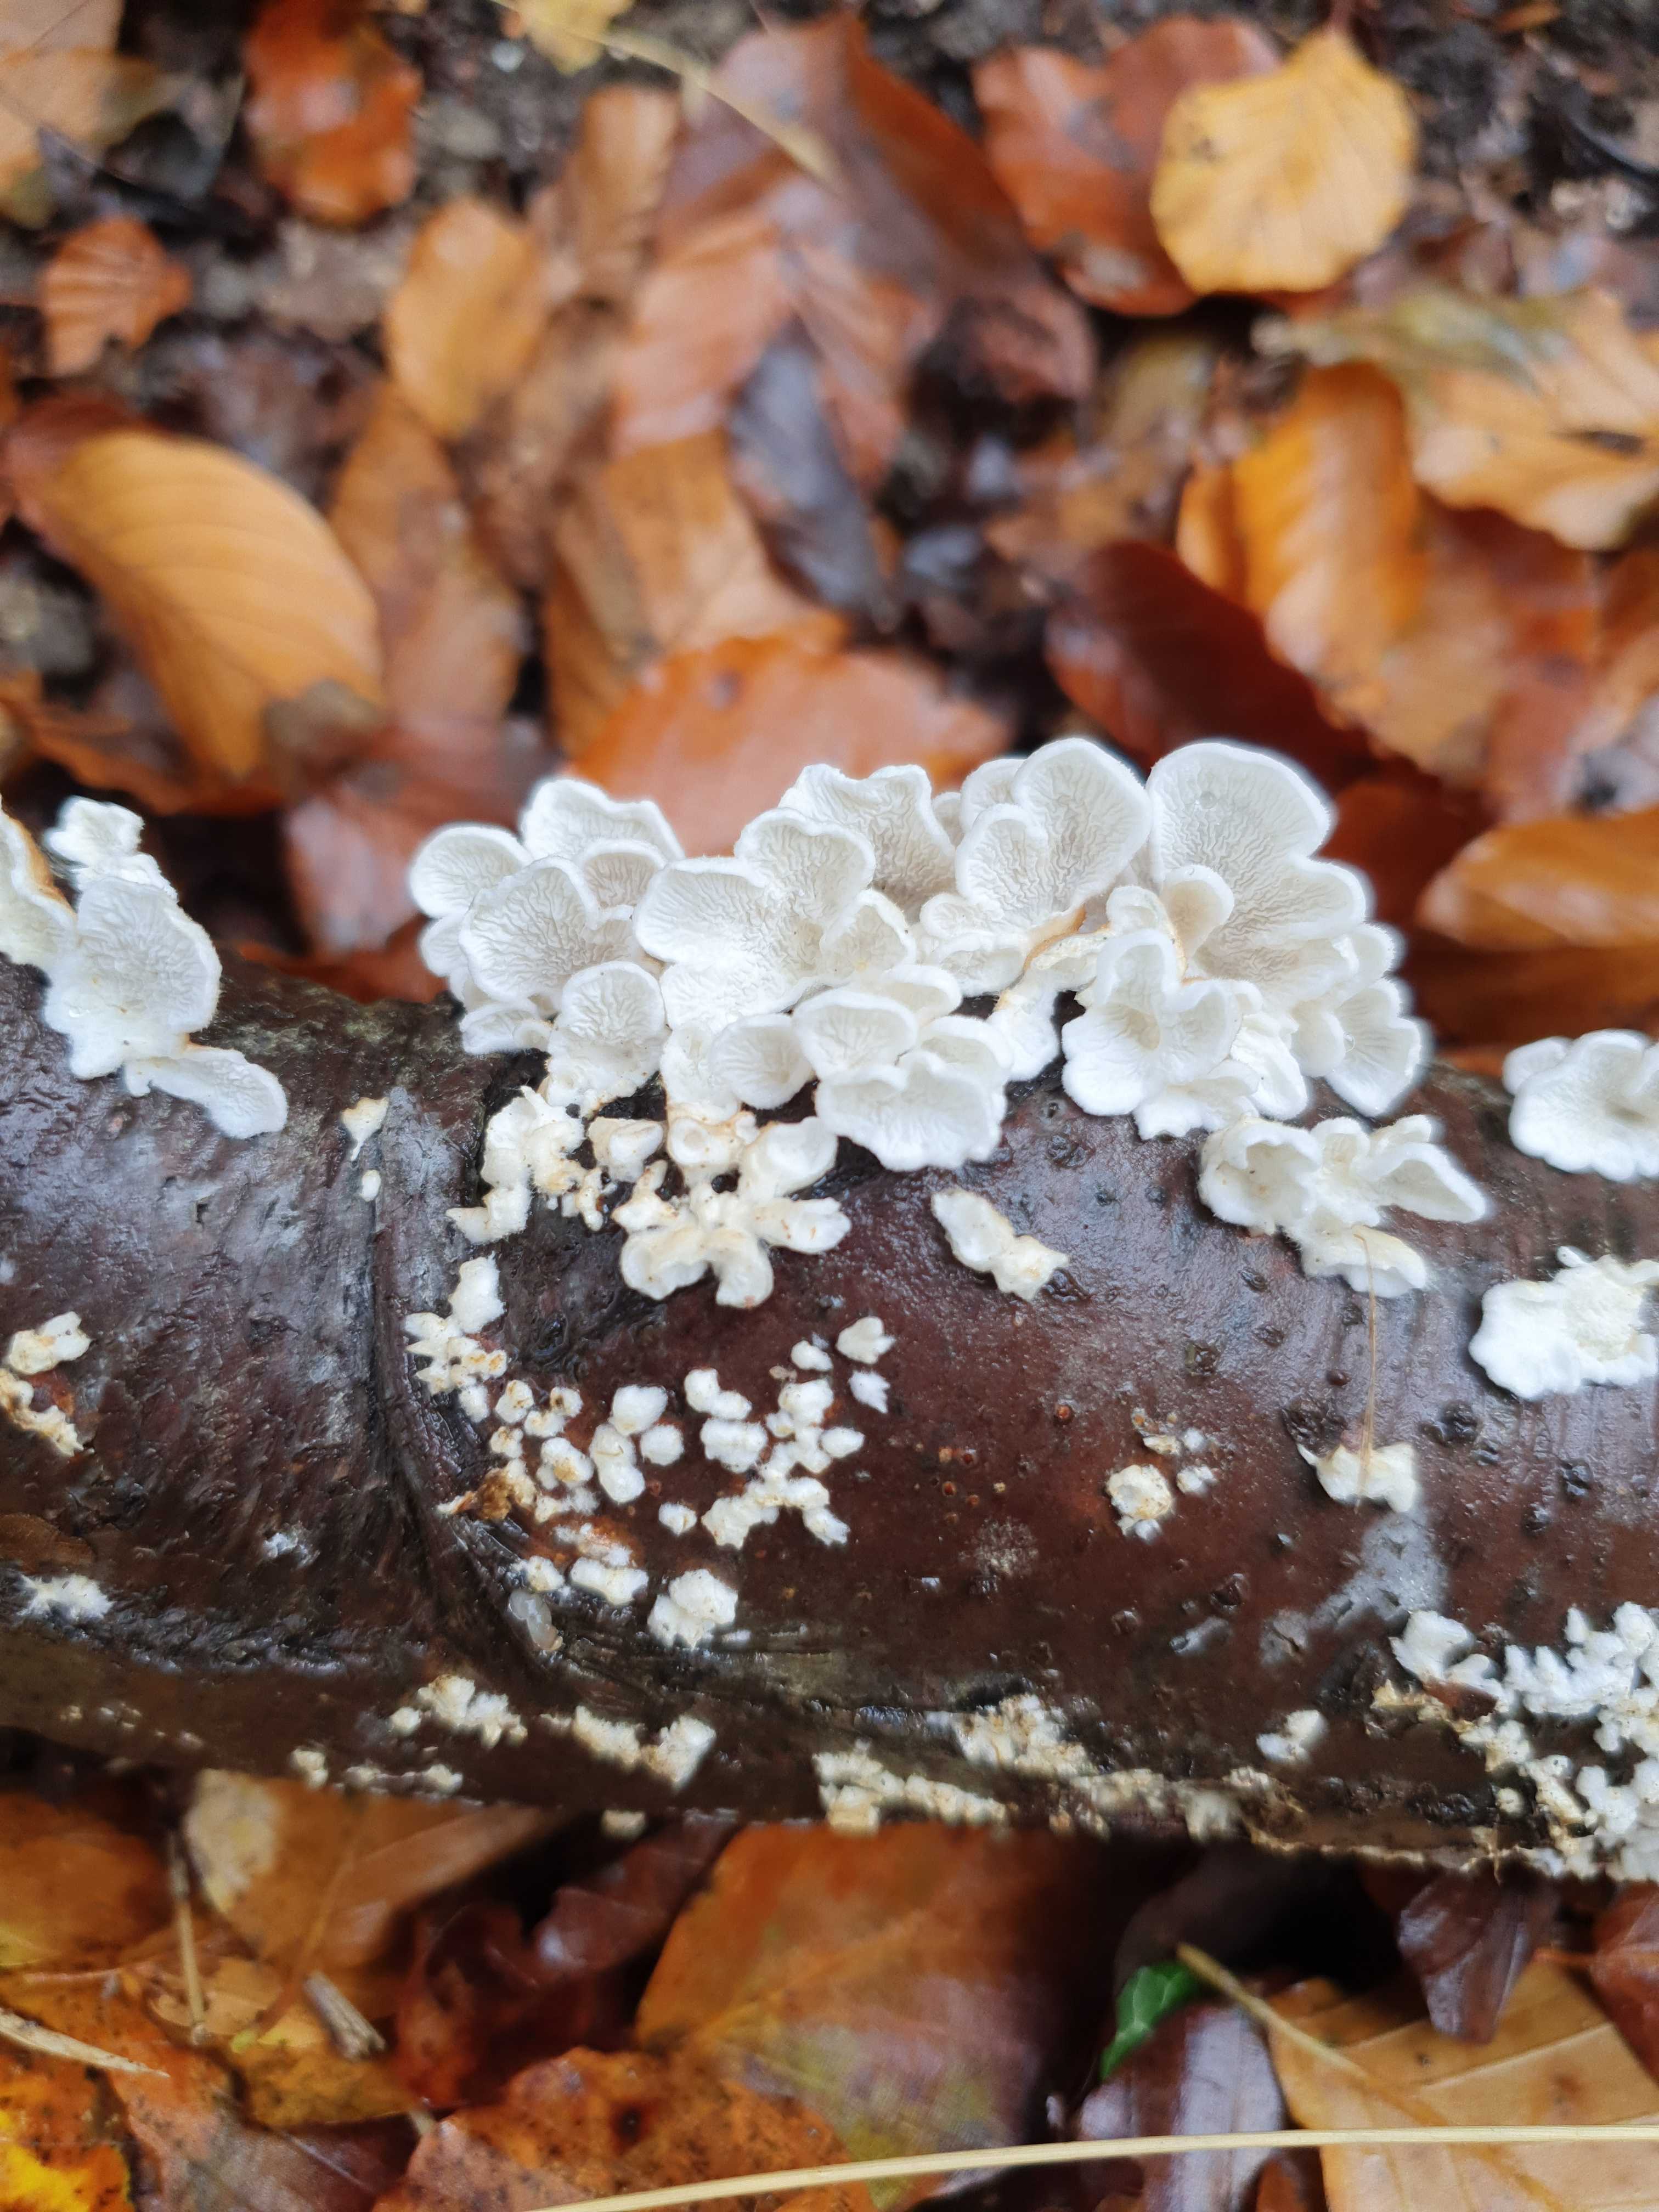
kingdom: Fungi
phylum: Basidiomycota
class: Agaricomycetes
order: Amylocorticiales
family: Amylocorticiaceae
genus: Plicaturopsis
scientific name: Plicaturopsis crispa
